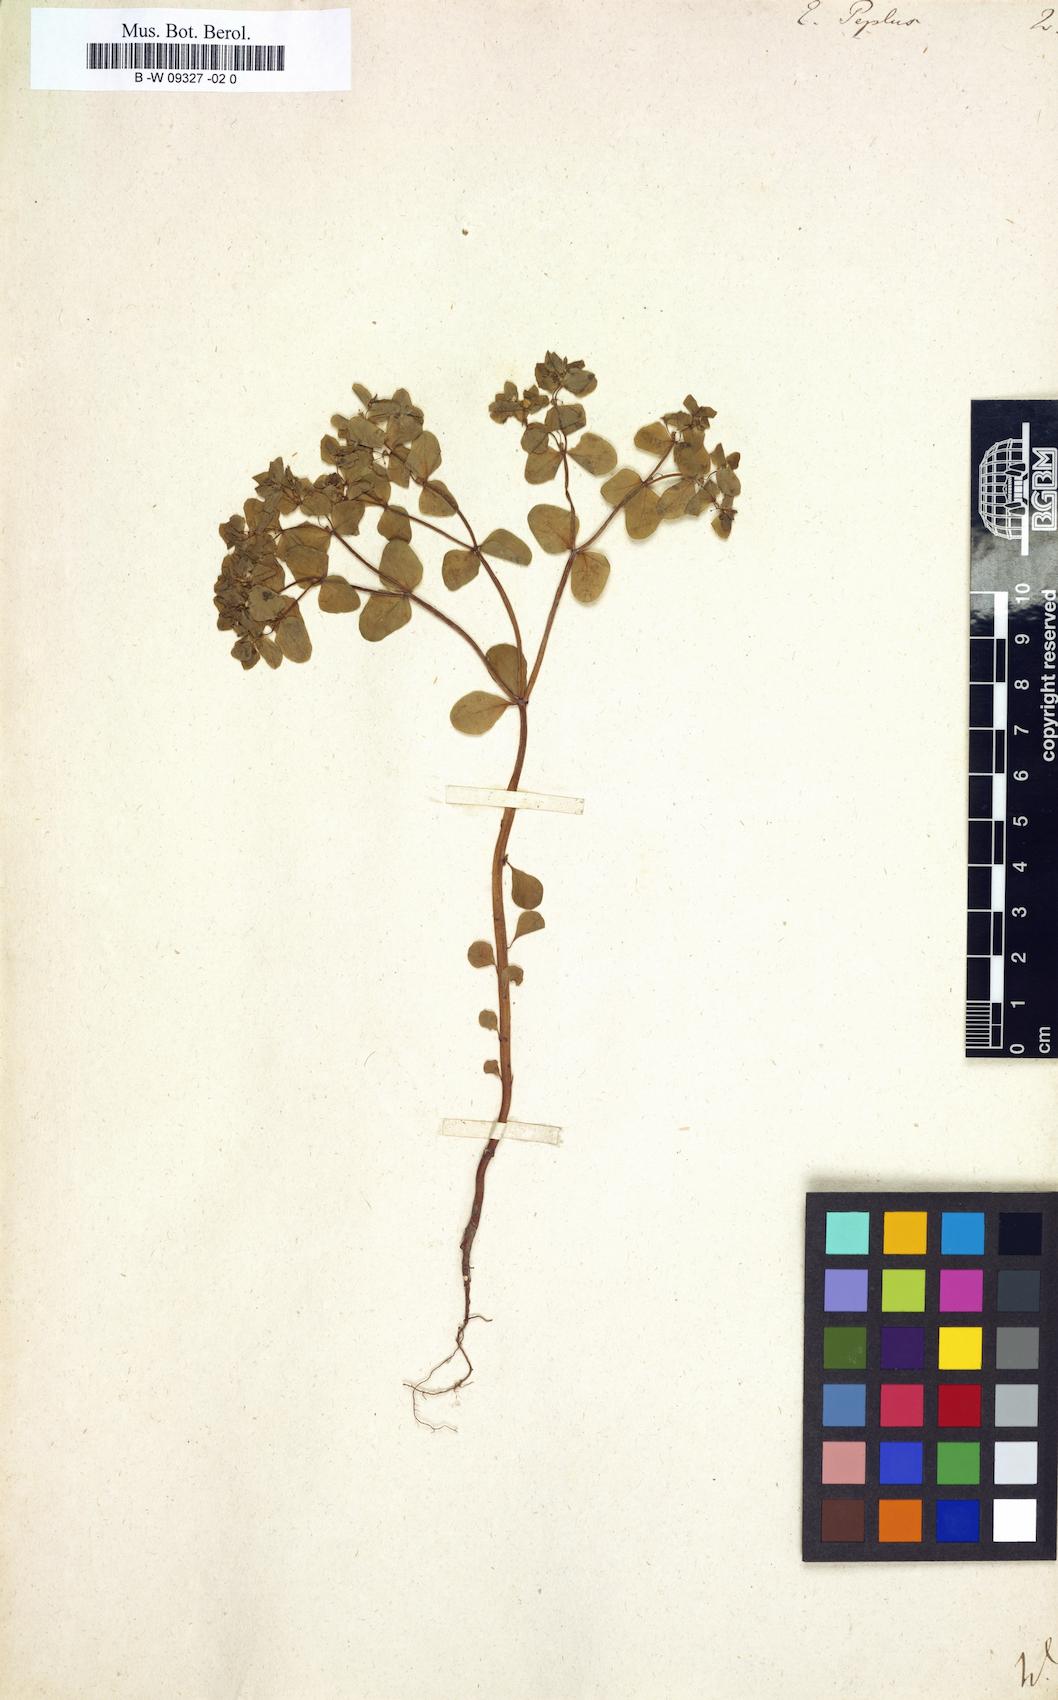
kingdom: Plantae
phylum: Tracheophyta
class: Magnoliopsida
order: Malpighiales
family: Euphorbiaceae
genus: Euphorbia
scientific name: Euphorbia peplus
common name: Petty spurge
